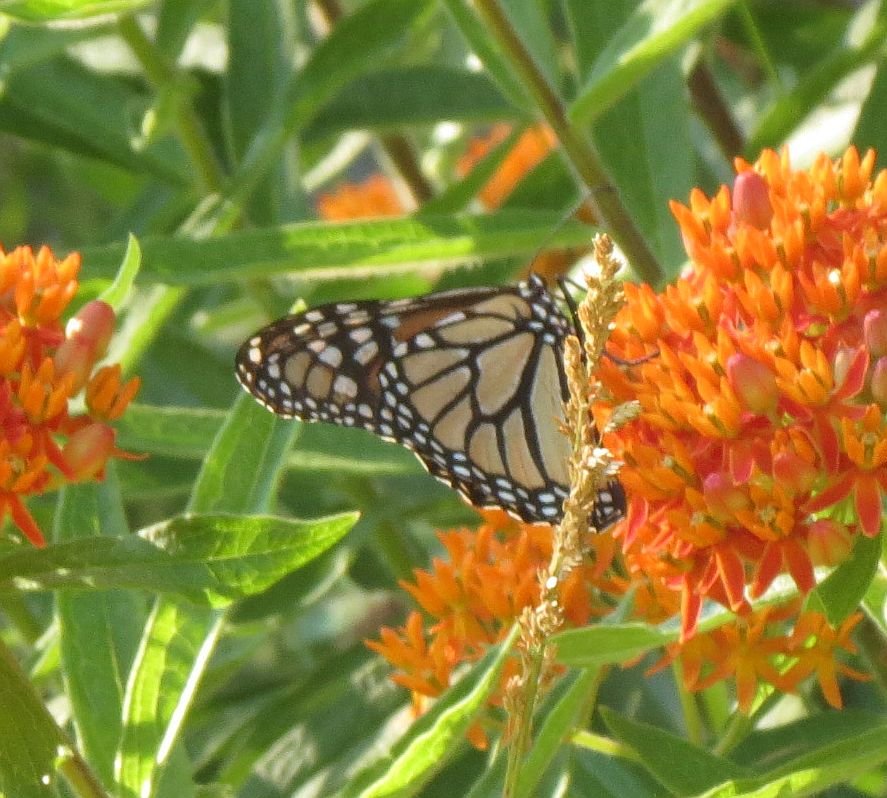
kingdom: Animalia
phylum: Arthropoda
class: Insecta
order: Lepidoptera
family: Nymphalidae
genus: Danaus
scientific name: Danaus plexippus
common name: Monarch
